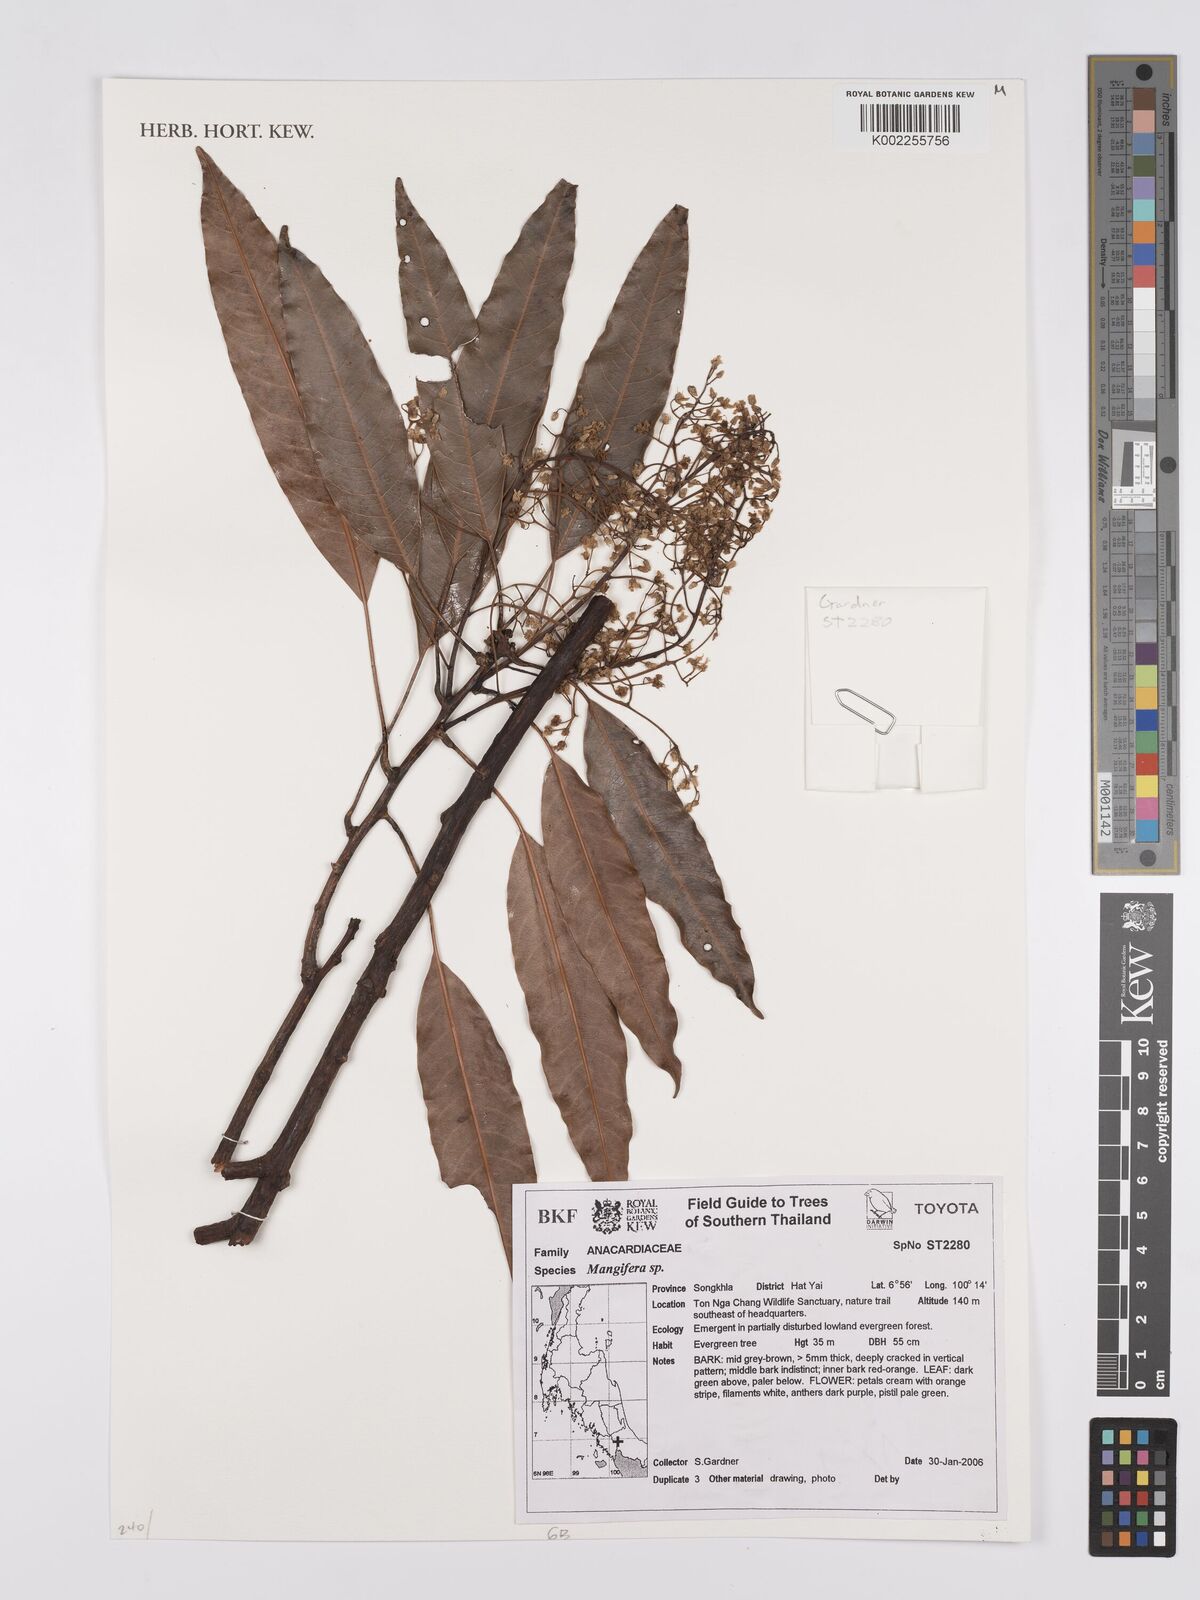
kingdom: Plantae
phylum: Tracheophyta
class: Magnoliopsida
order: Sapindales
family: Anacardiaceae
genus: Mangifera
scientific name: Mangifera
